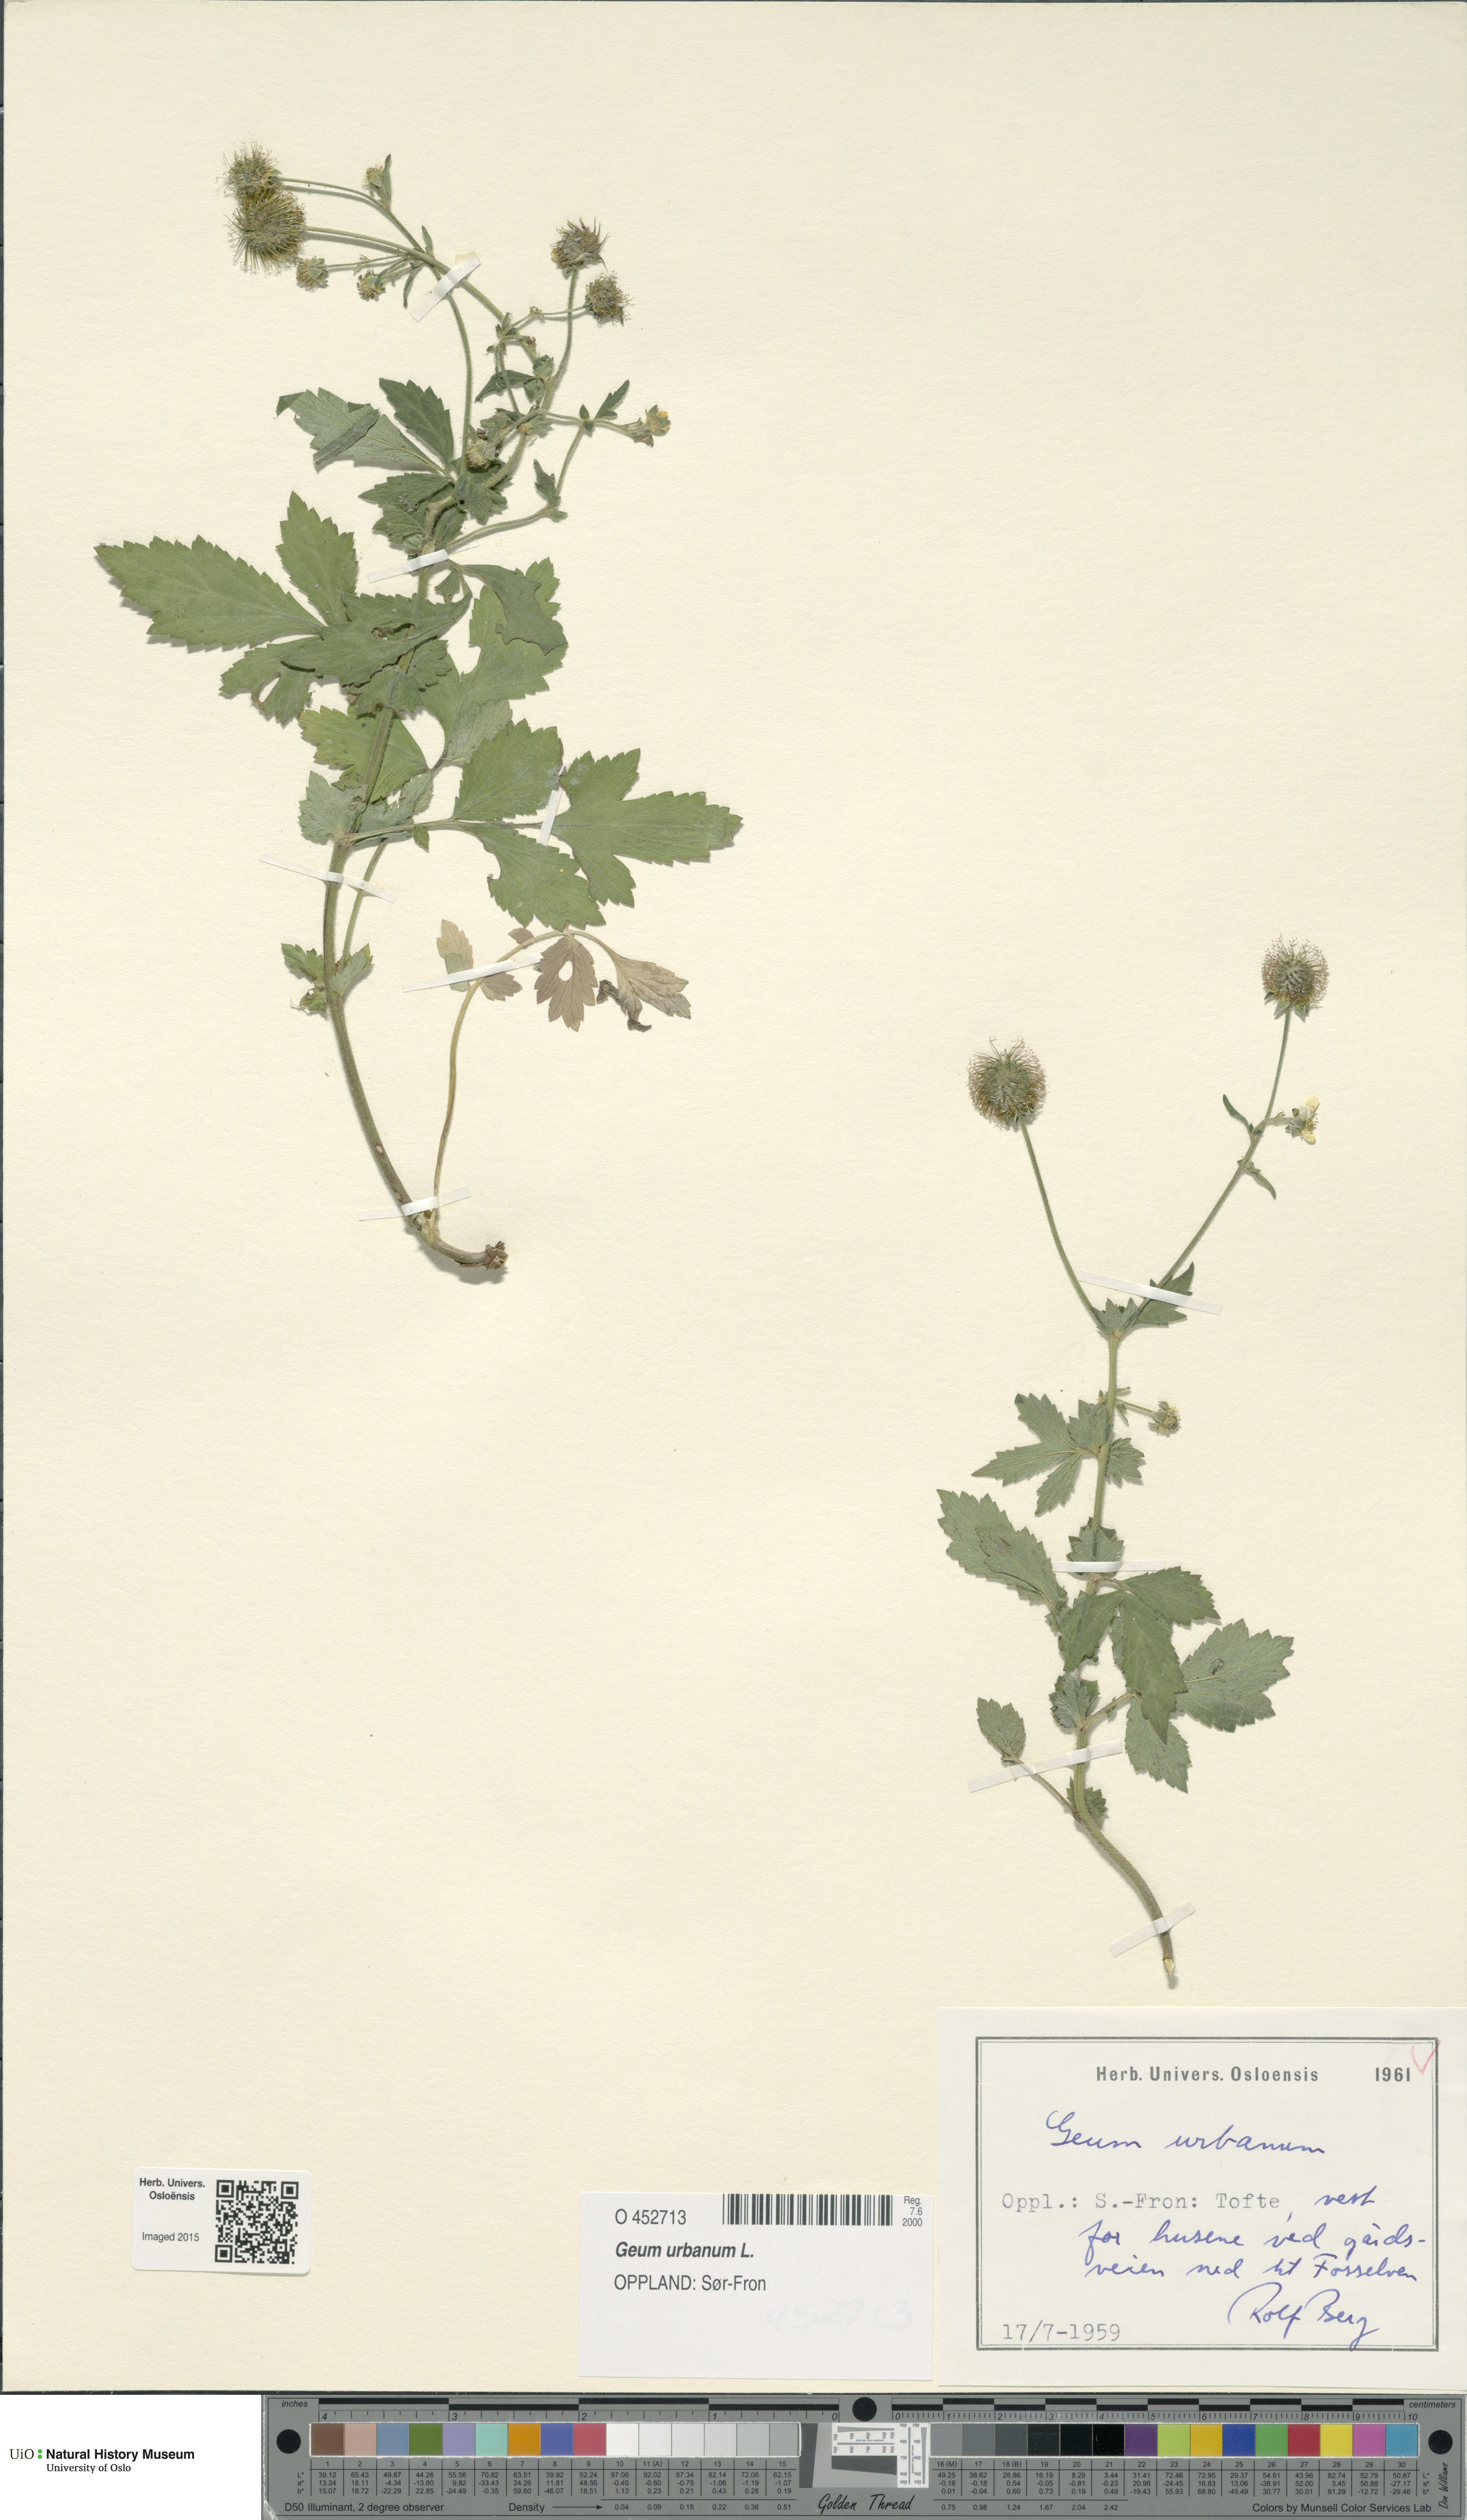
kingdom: Plantae
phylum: Tracheophyta
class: Magnoliopsida
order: Rosales
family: Rosaceae
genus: Geum
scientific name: Geum urbanum
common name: Wood avens
